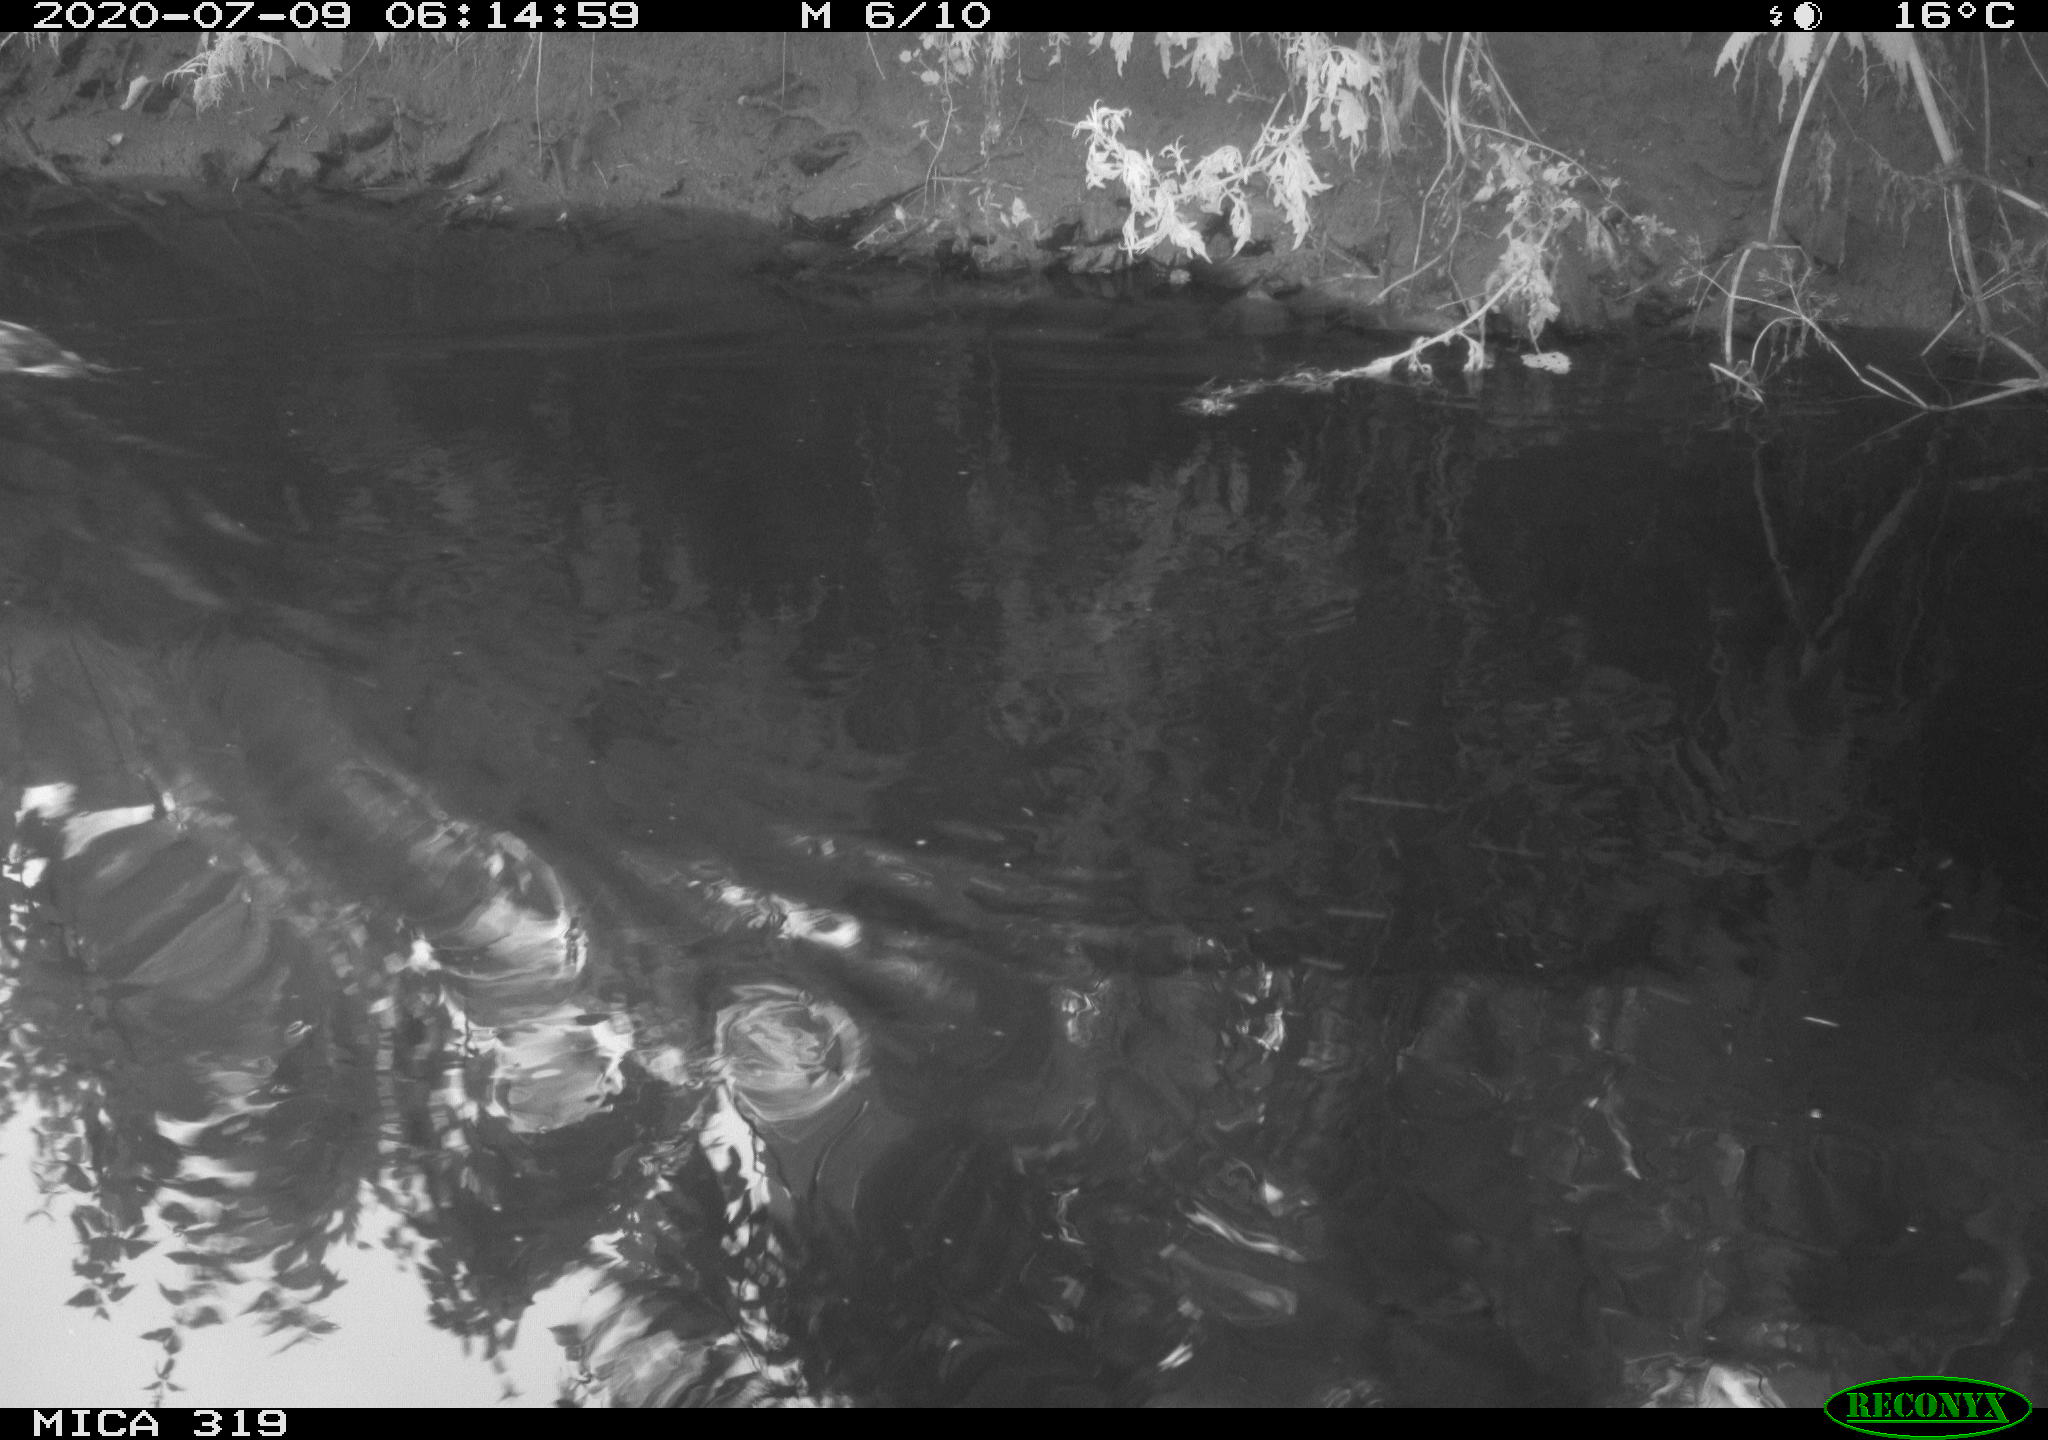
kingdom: Animalia
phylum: Chordata
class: Aves
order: Anseriformes
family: Anatidae
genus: Anas
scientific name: Anas platyrhynchos
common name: Mallard
